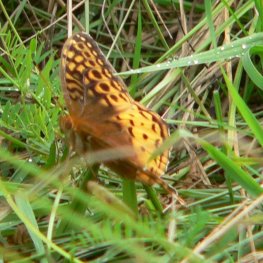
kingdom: Animalia
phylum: Arthropoda
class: Insecta
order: Lepidoptera
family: Nymphalidae
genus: Speyeria
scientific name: Speyeria cybele
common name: Great Spangled Fritillary
